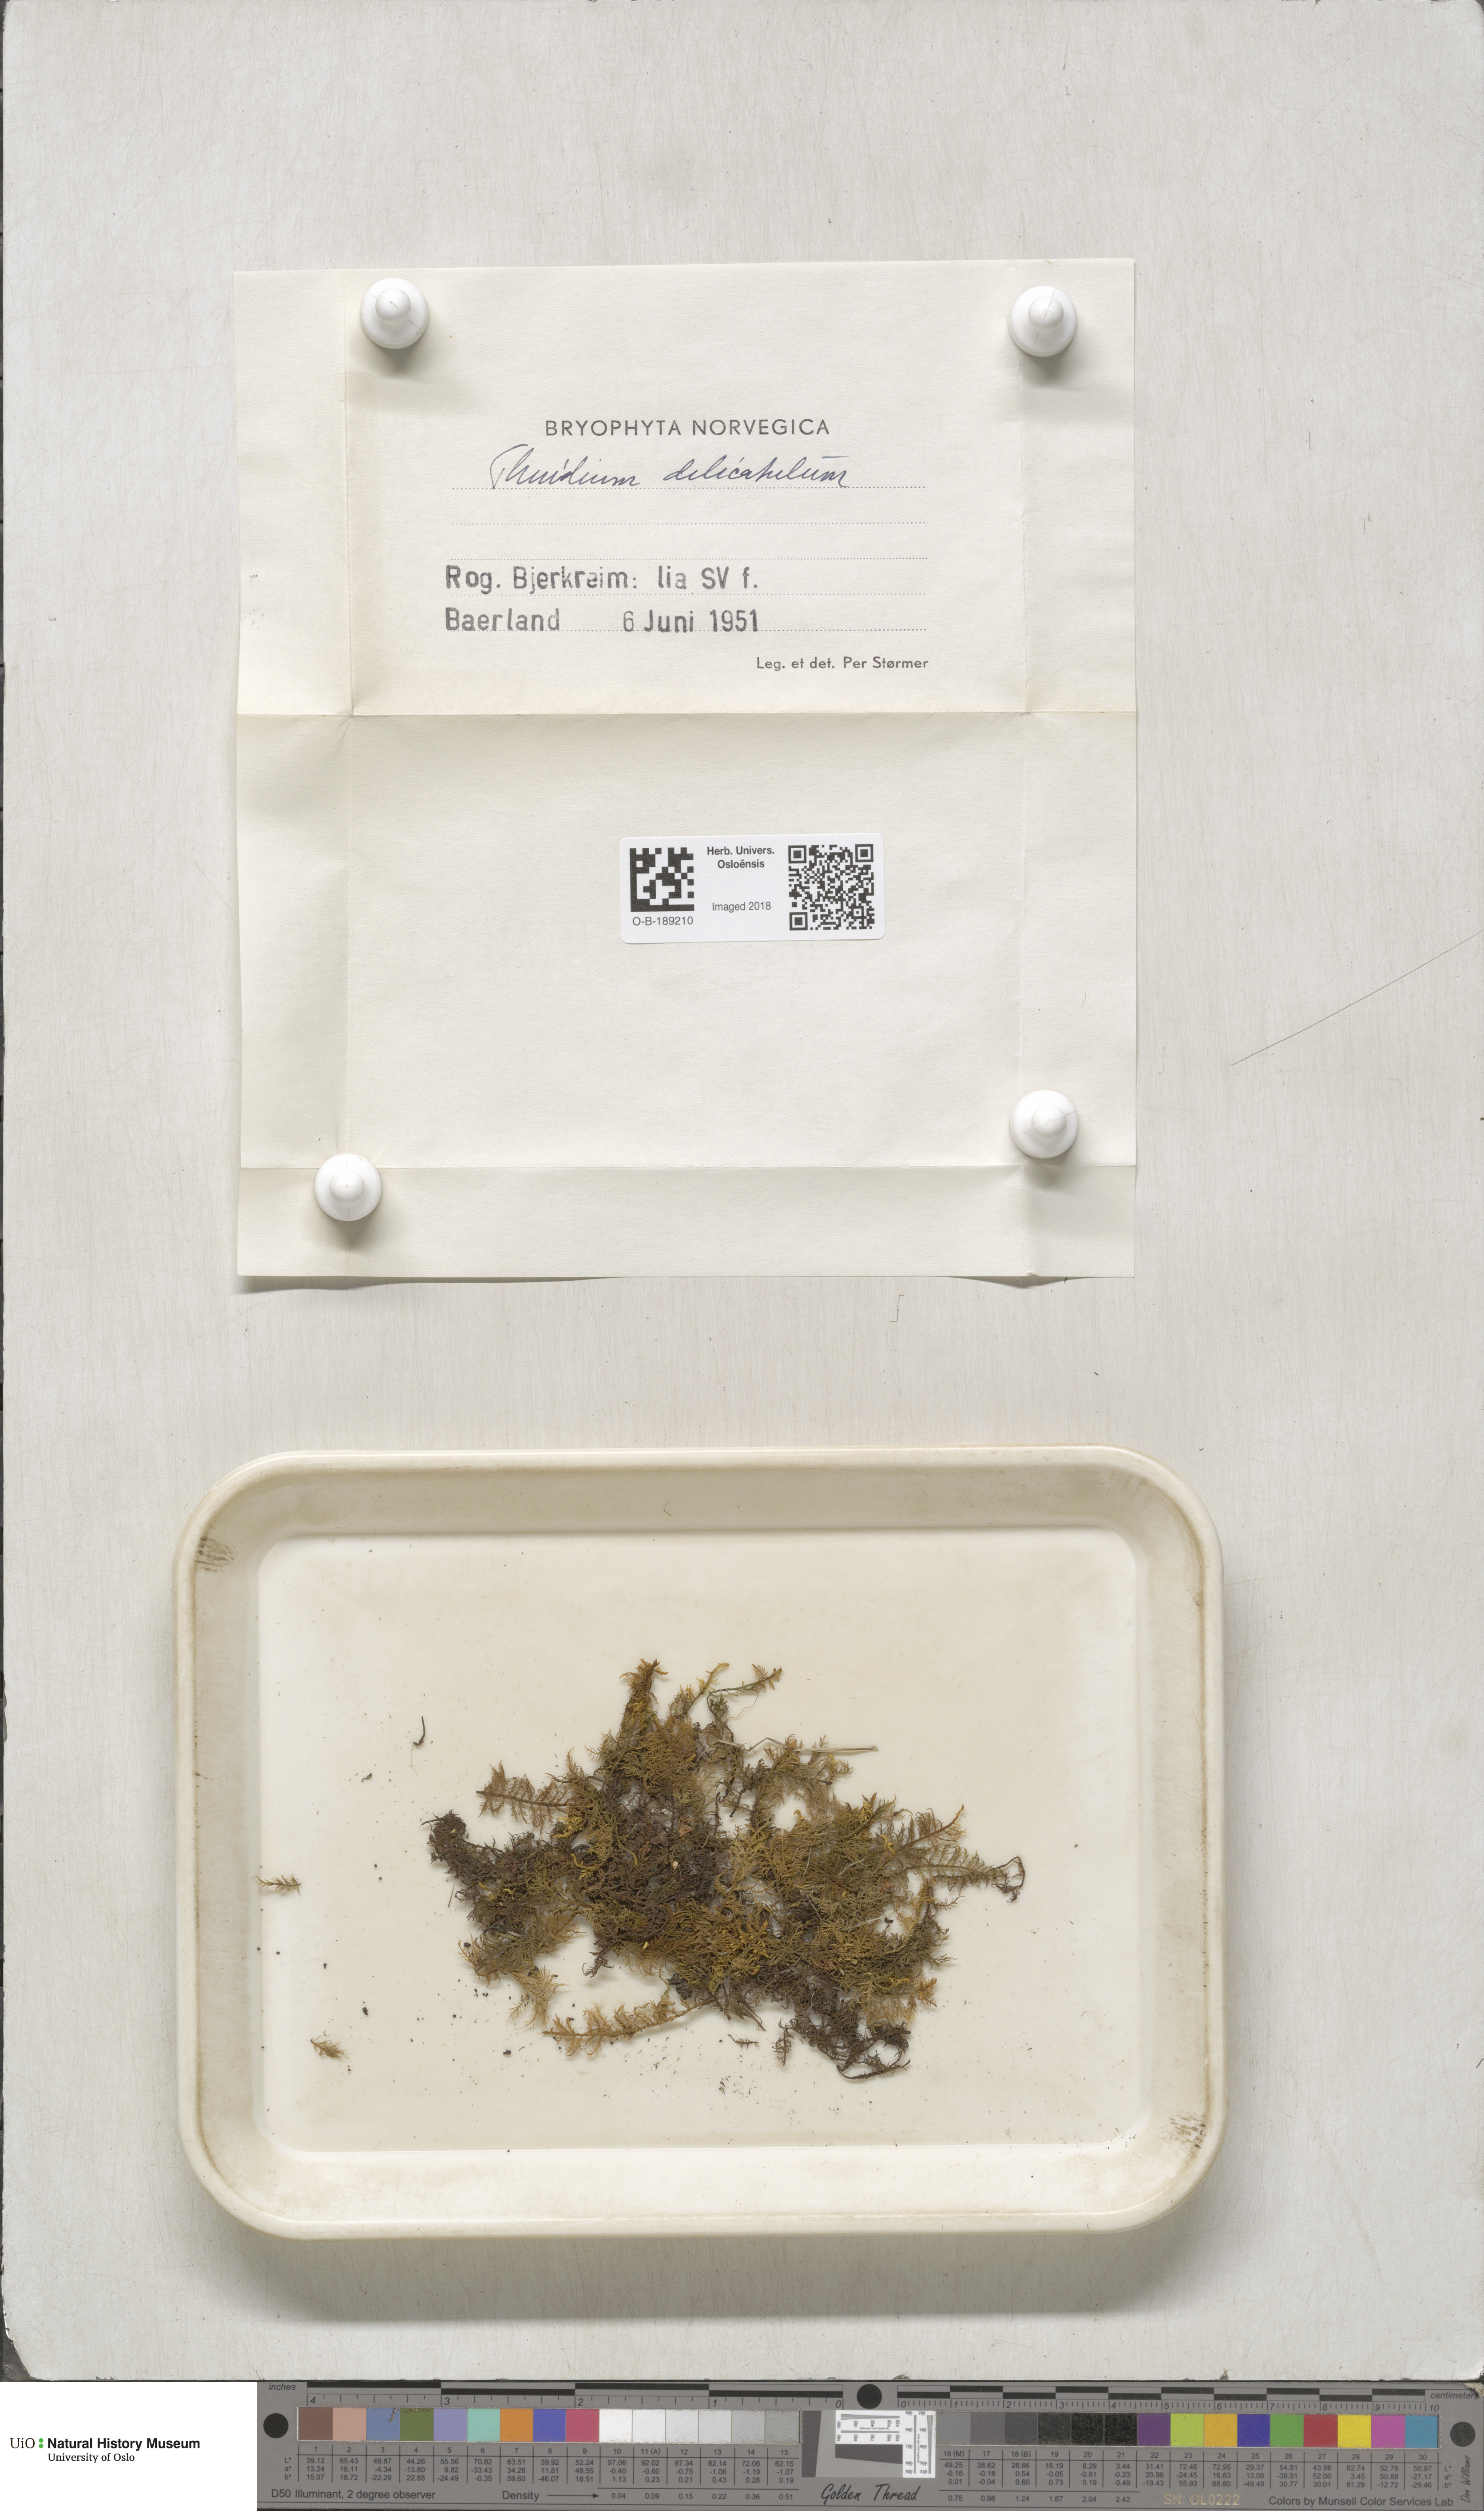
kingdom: Plantae
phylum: Bryophyta
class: Bryopsida
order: Hypnales
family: Thuidiaceae
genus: Thuidium
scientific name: Thuidium delicatulum
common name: Delicate fern moss
